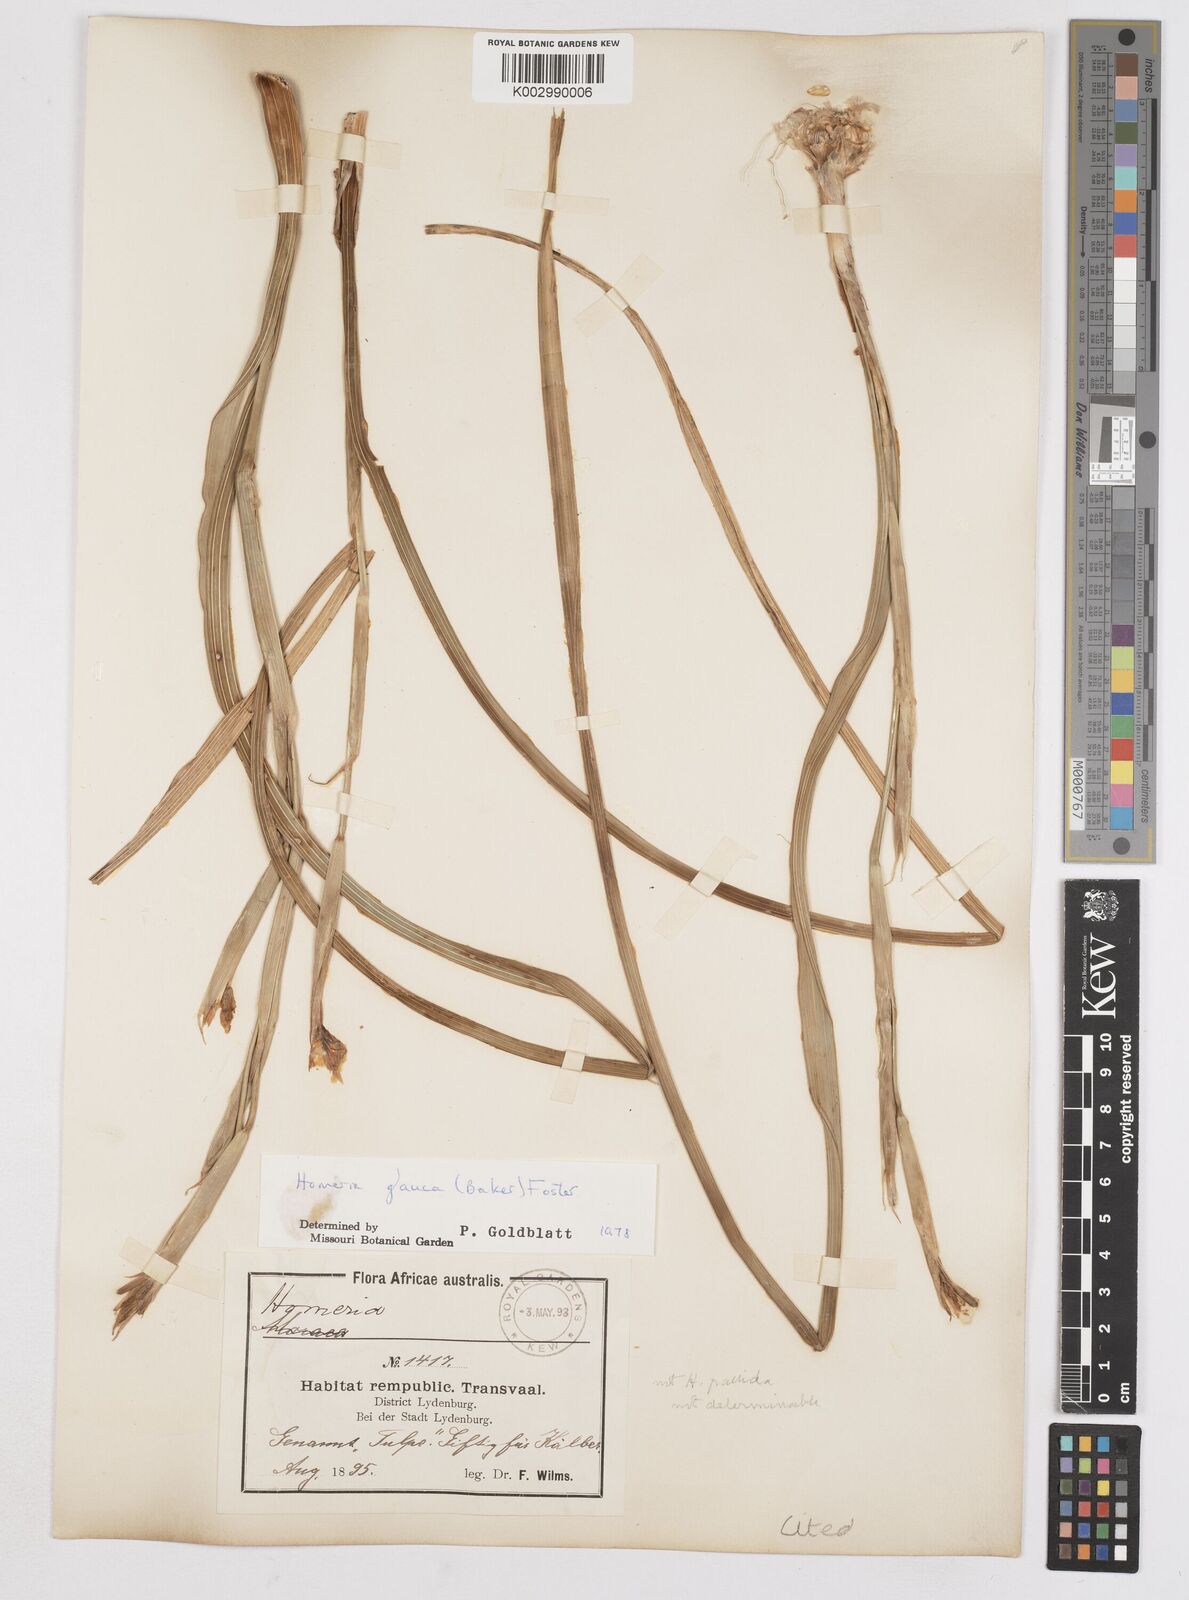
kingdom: Plantae
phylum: Tracheophyta
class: Liliopsida
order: Asparagales
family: Iridaceae
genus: Moraea
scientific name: Moraea pallida
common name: Yellow tulp
